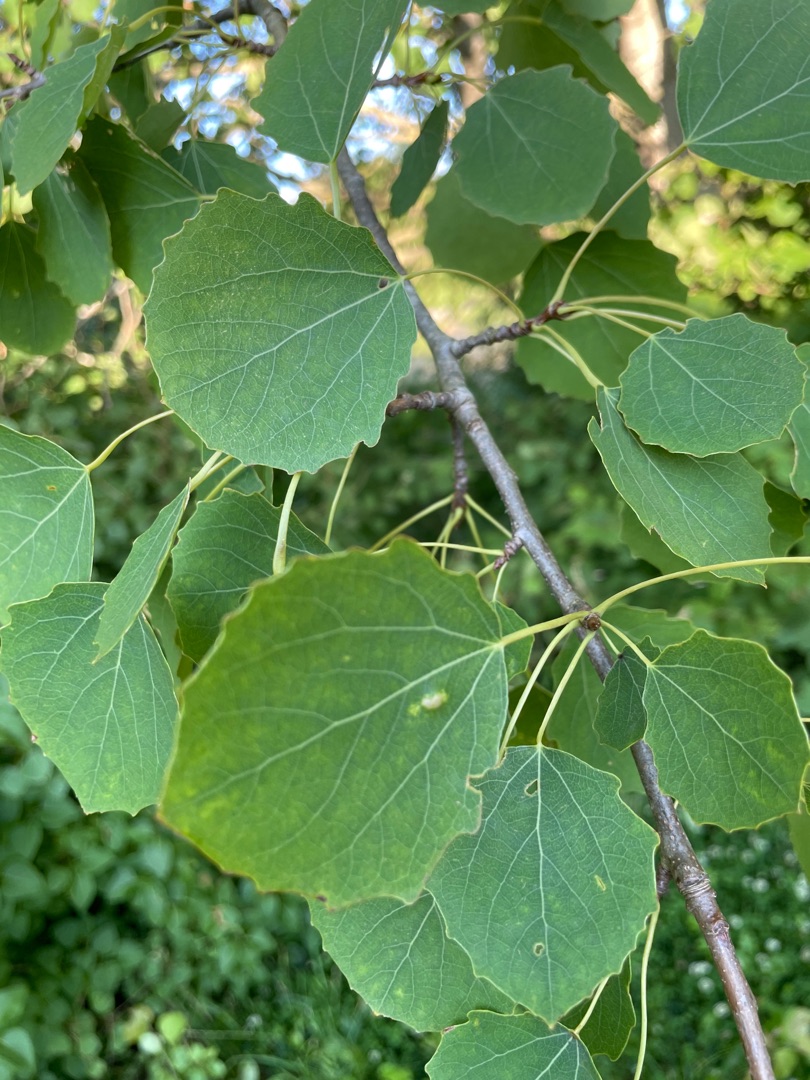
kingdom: Plantae
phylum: Tracheophyta
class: Magnoliopsida
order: Malpighiales
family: Salicaceae
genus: Populus
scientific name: Populus tremula
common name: Bævreasp
